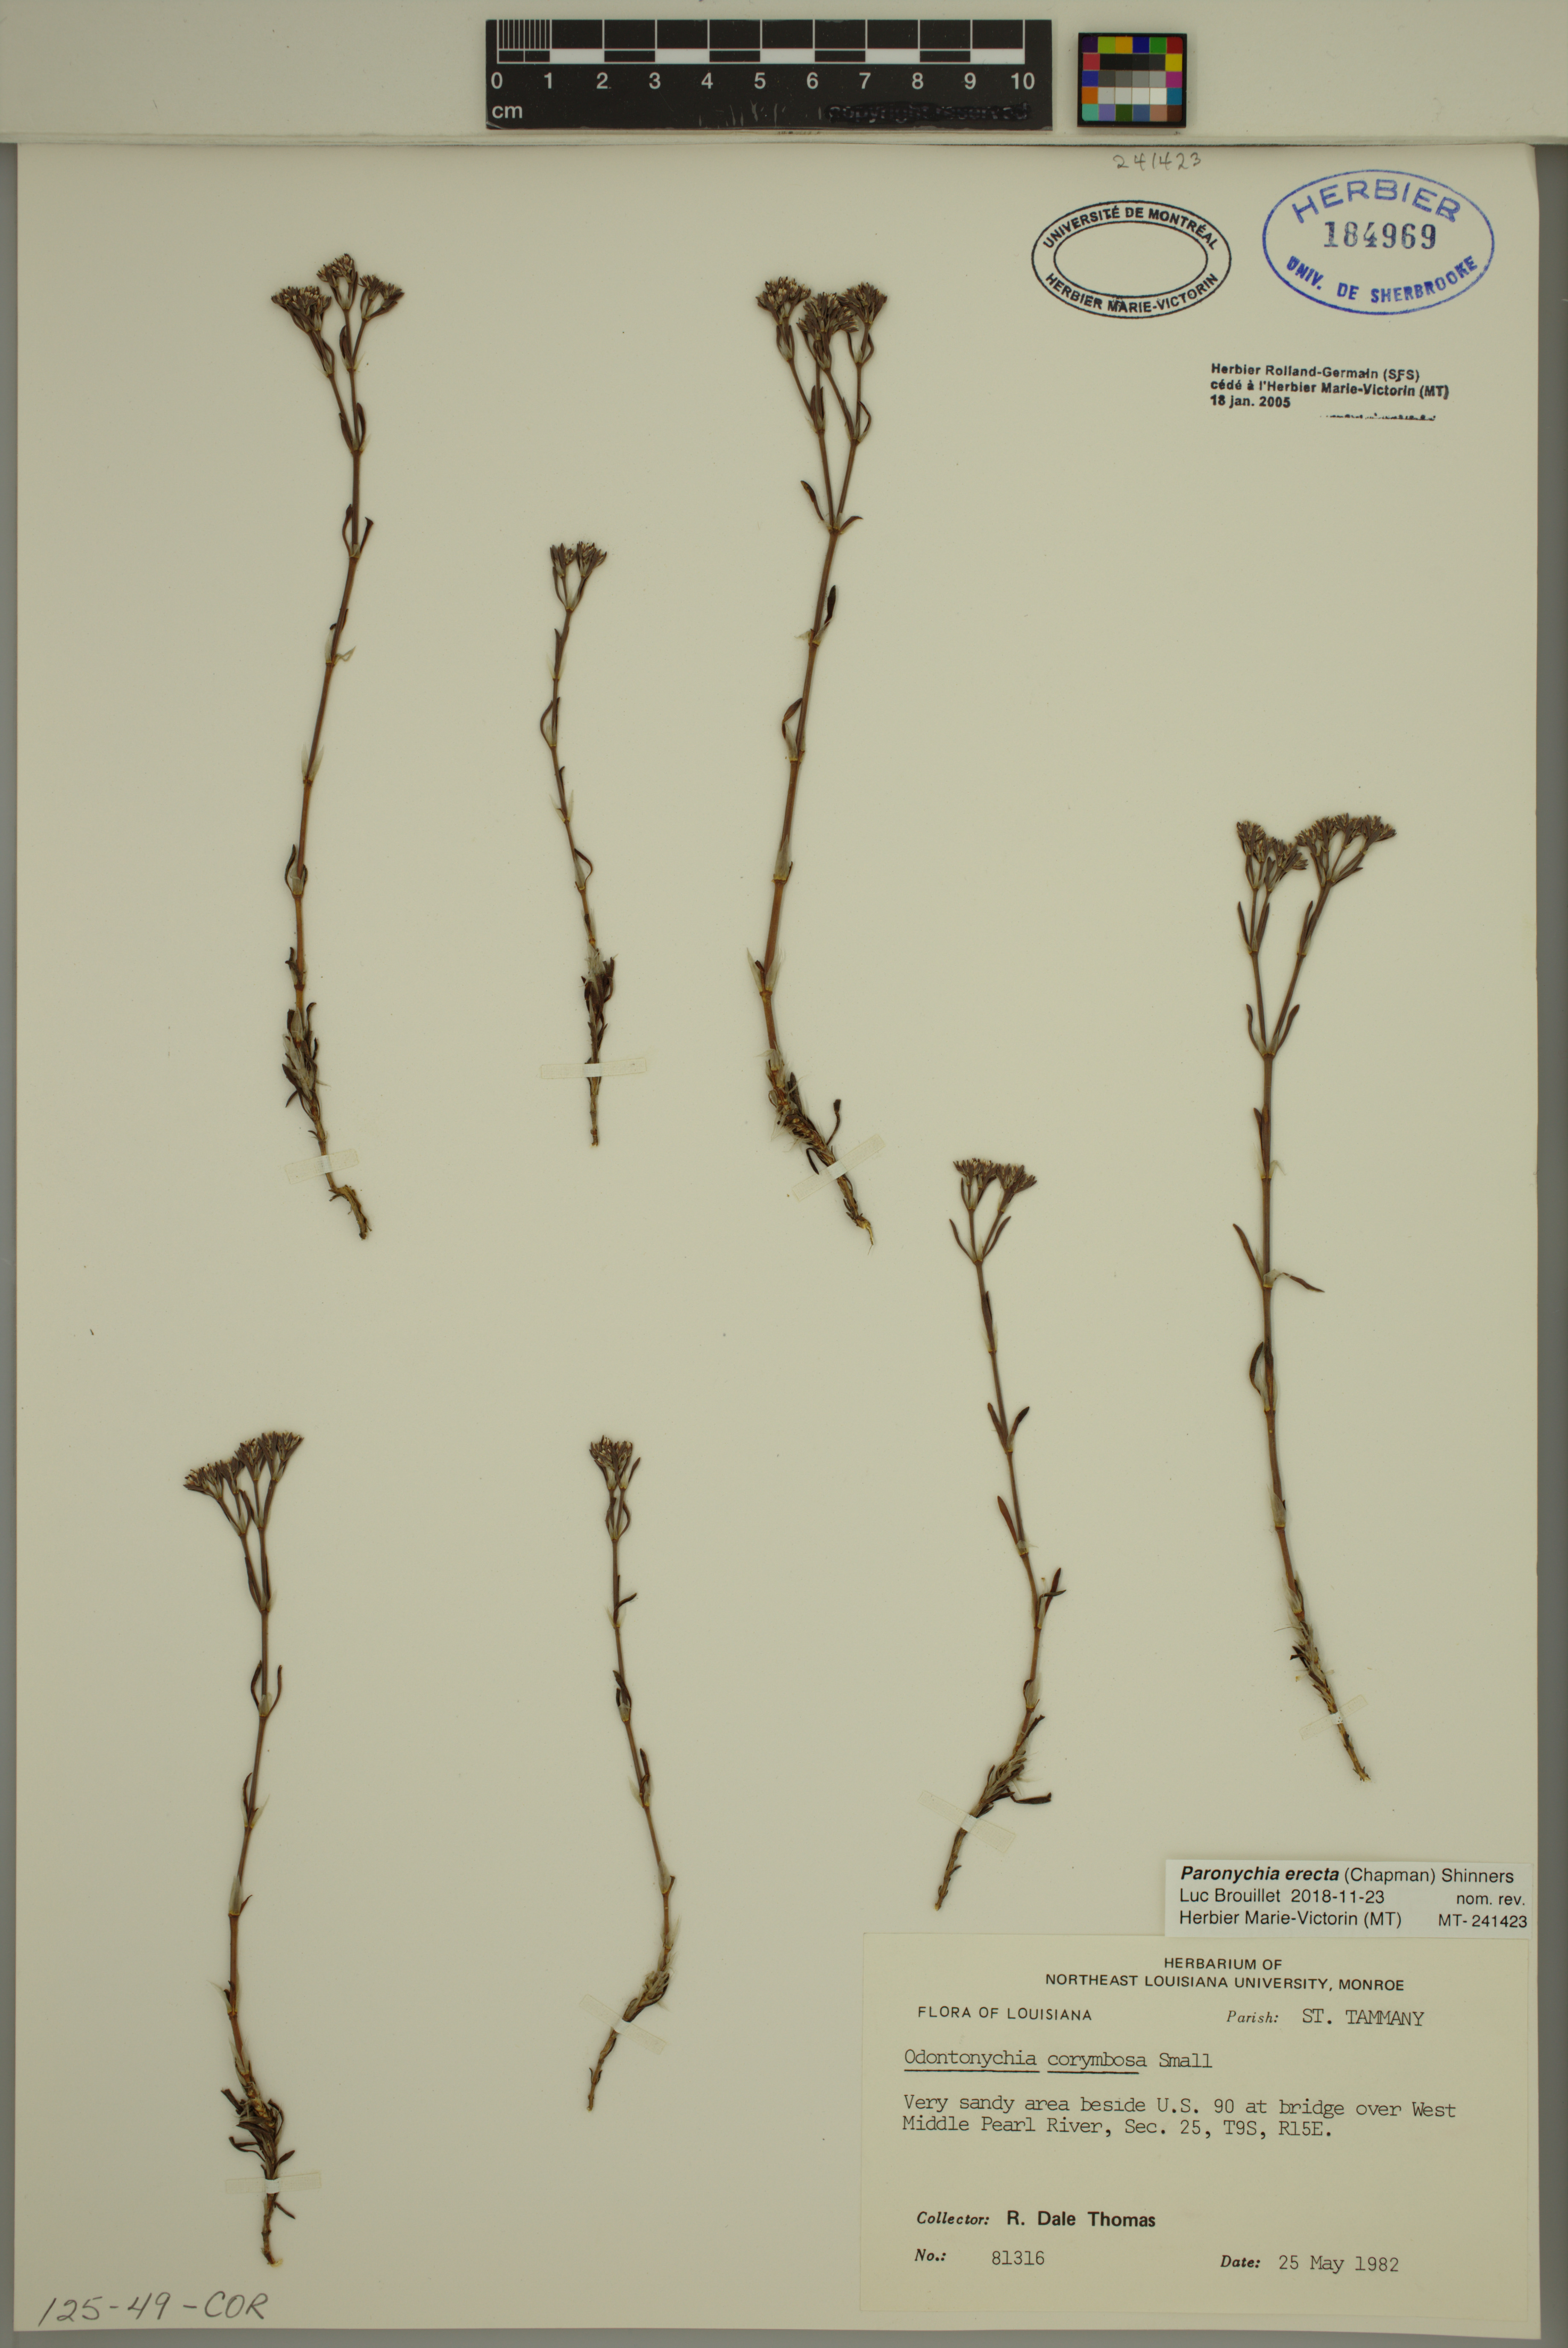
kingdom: Plantae
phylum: Tracheophyta
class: Magnoliopsida
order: Caryophyllales
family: Caryophyllaceae
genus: Paronychia
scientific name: Paronychia erecta
